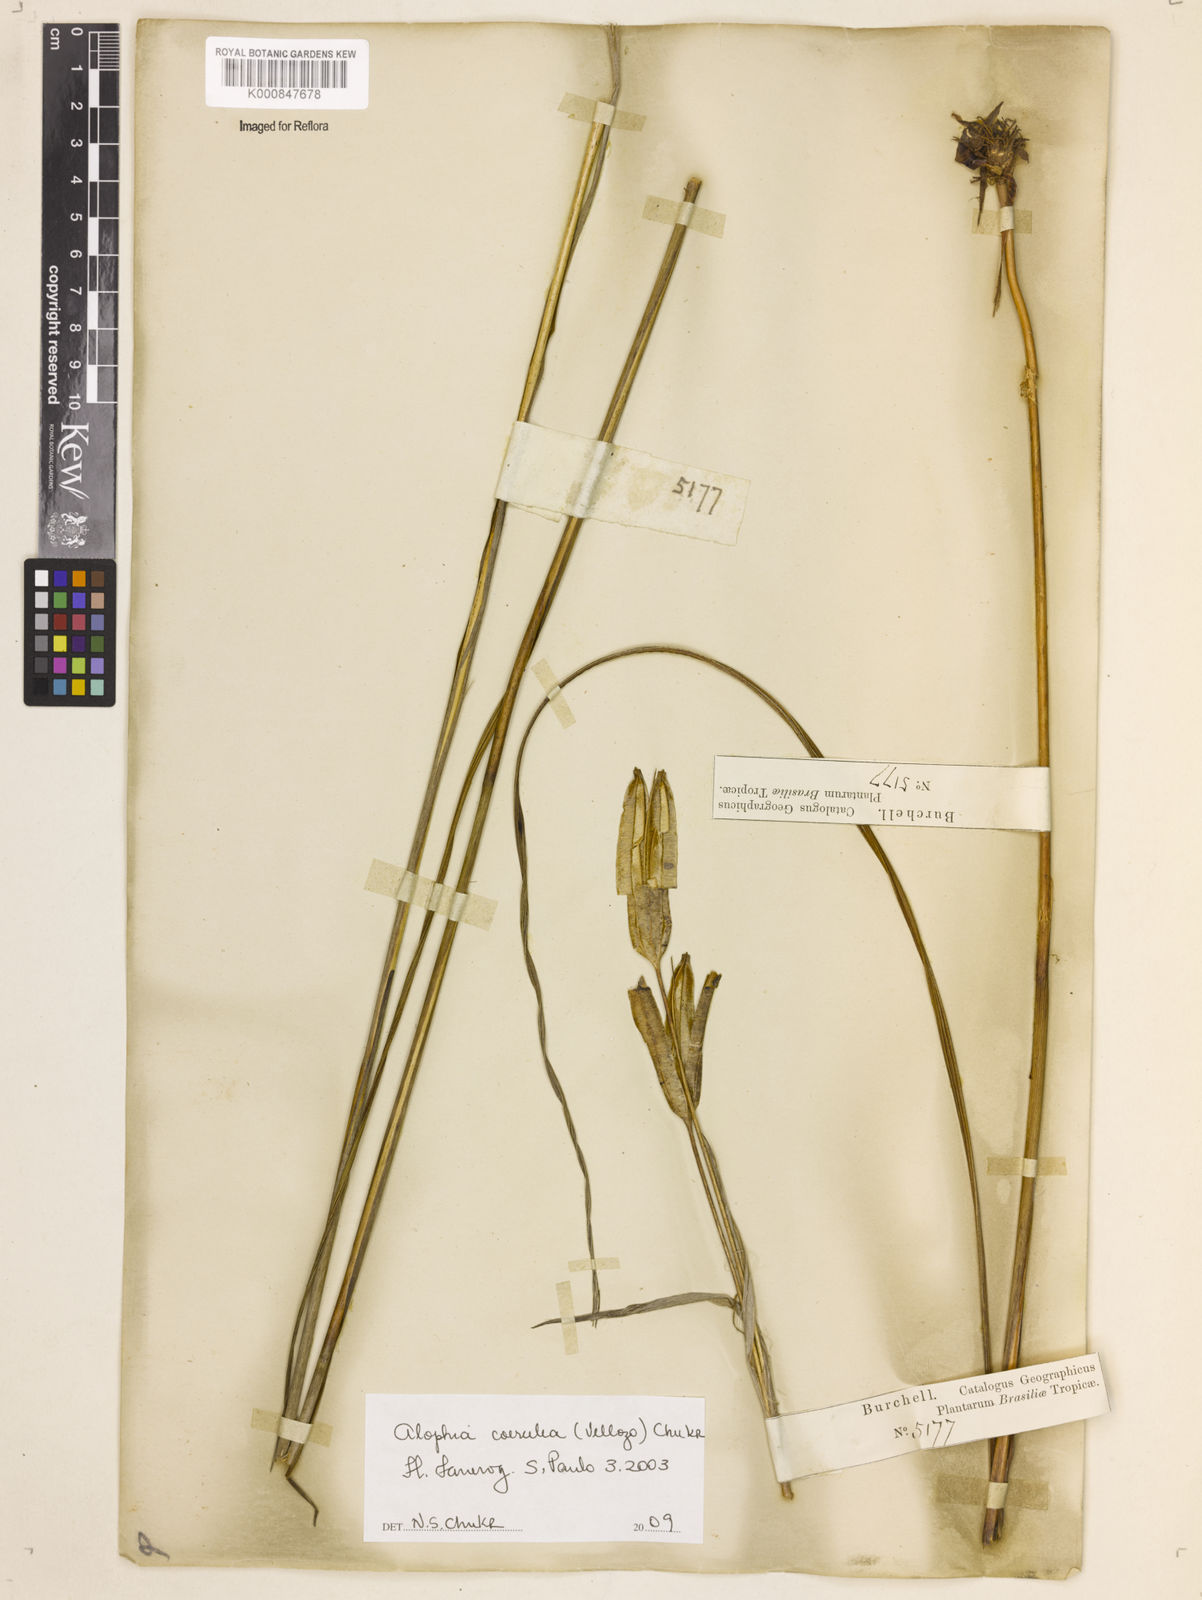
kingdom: Plantae
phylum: Tracheophyta
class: Liliopsida
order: Asparagales
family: Iridaceae
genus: Gelasine
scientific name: Gelasine coerulea
